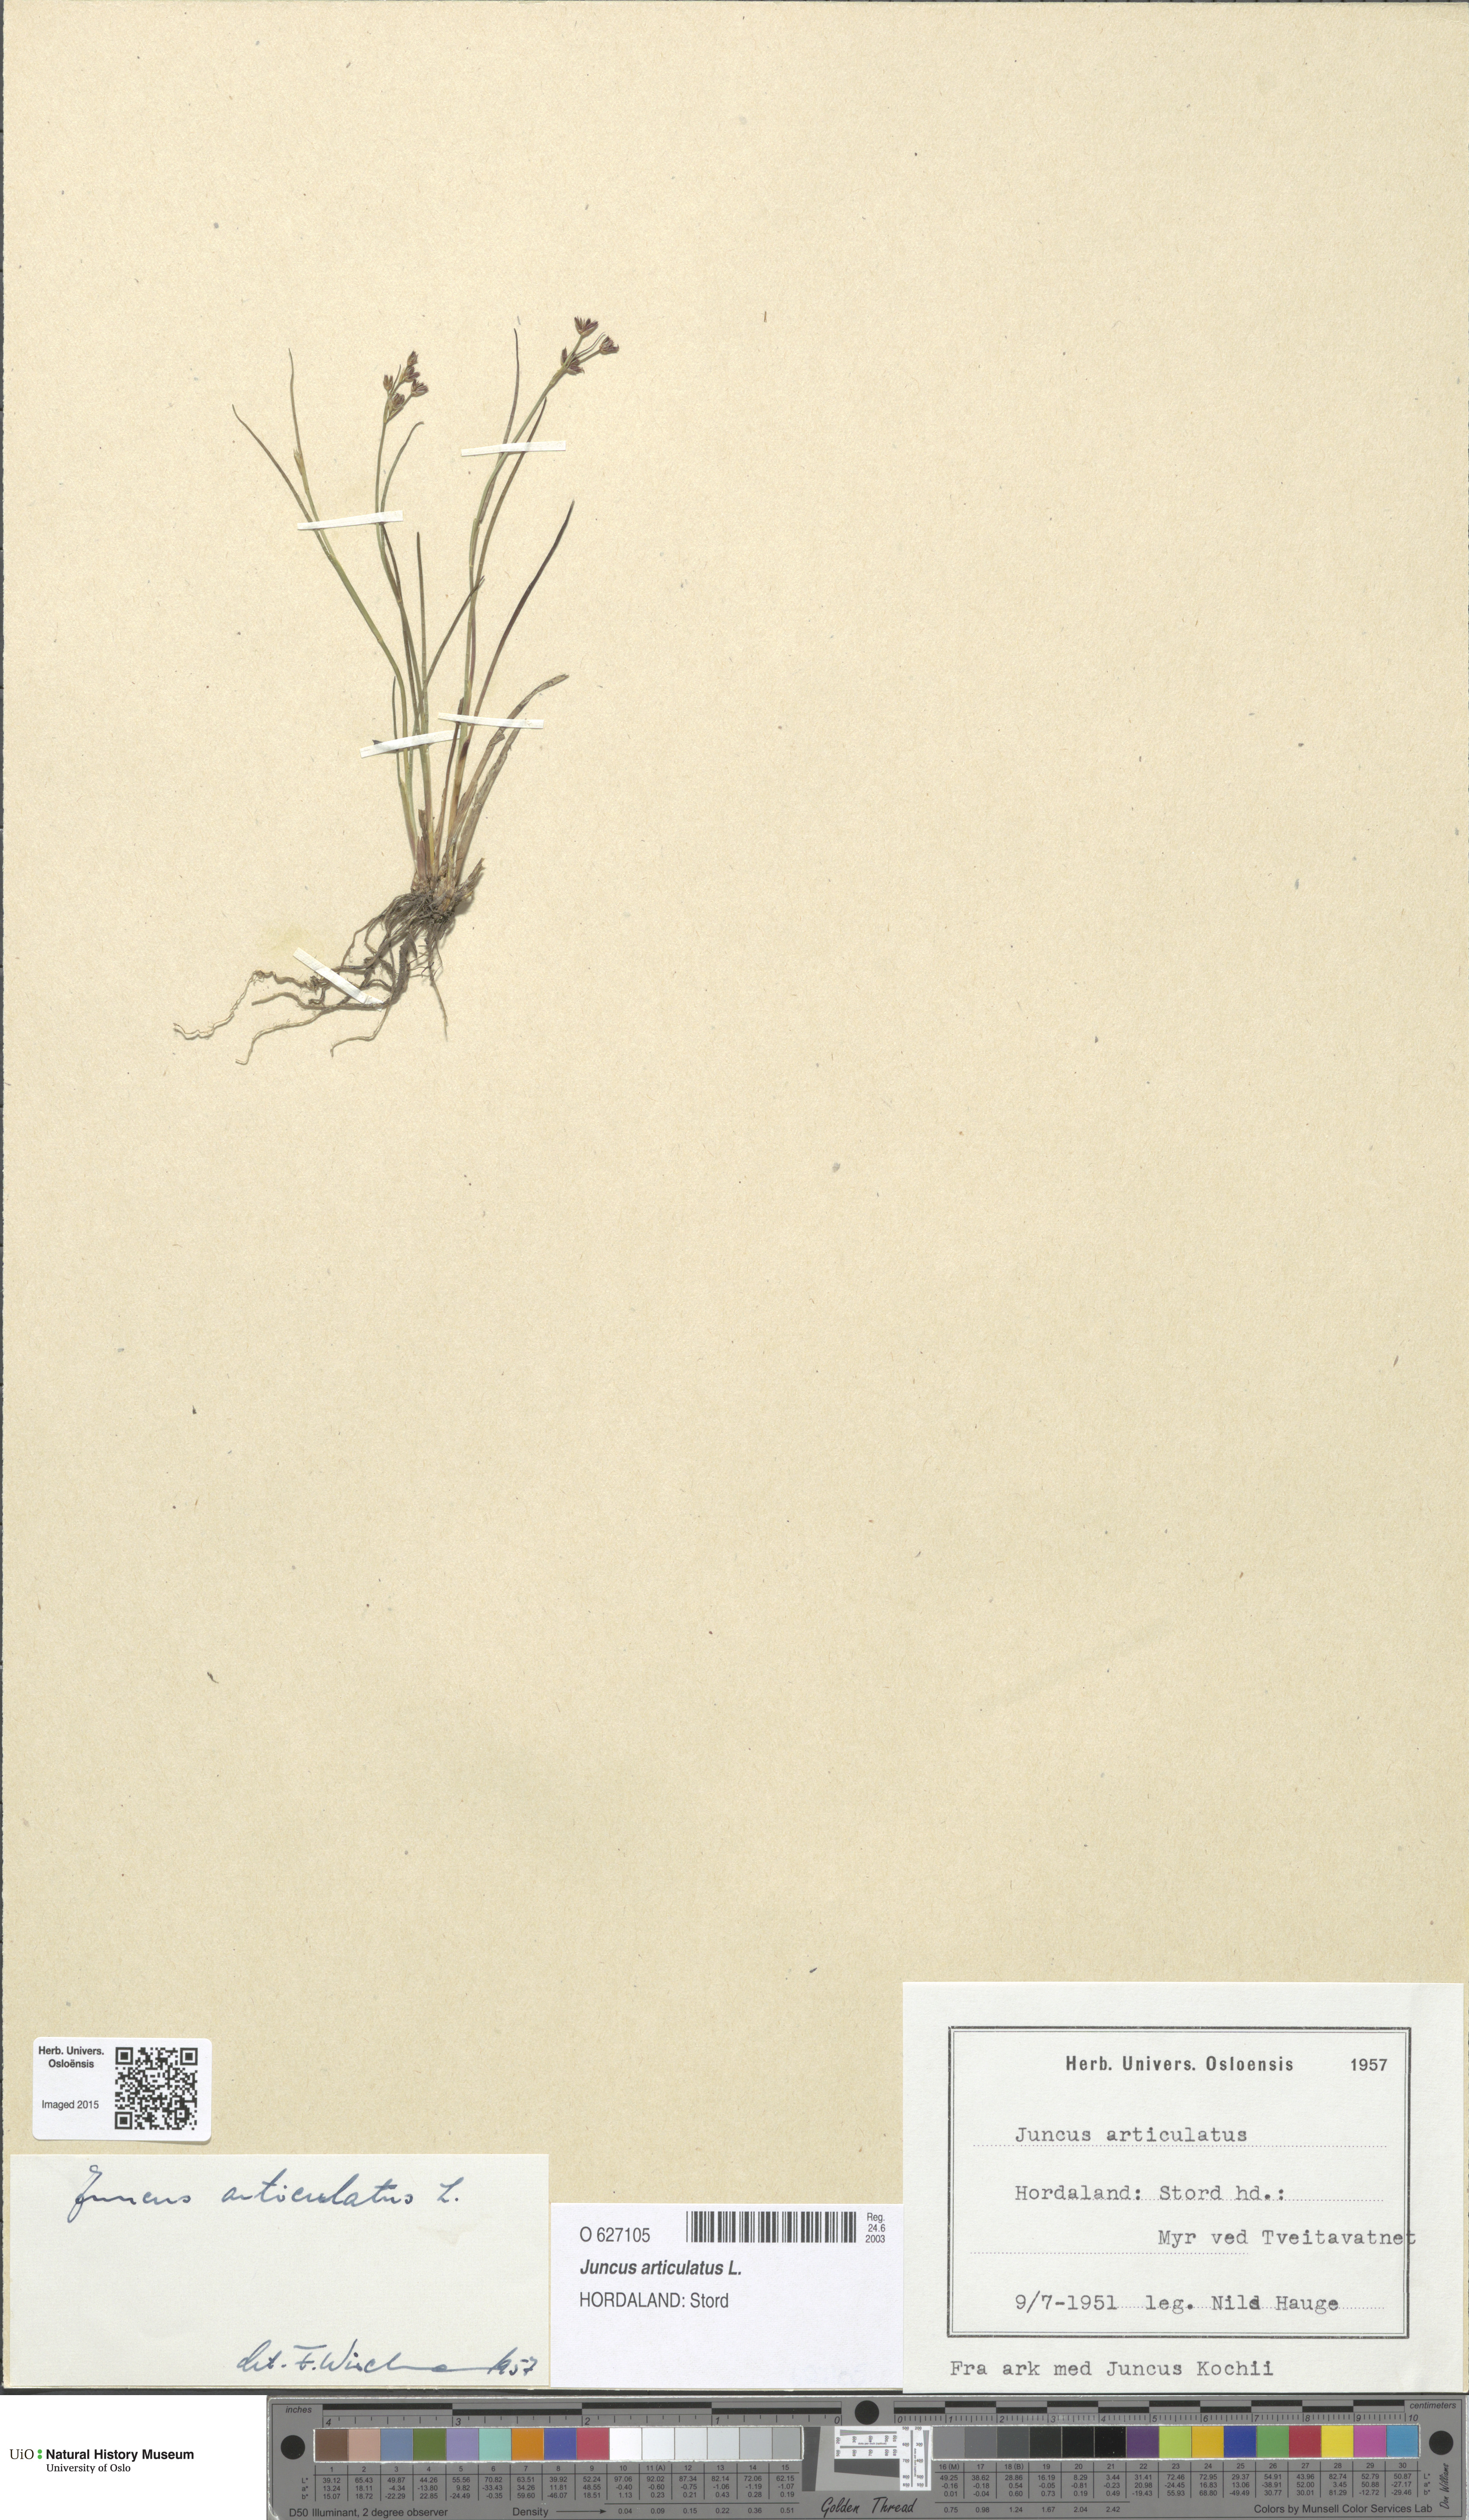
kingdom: Plantae
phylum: Tracheophyta
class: Liliopsida
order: Poales
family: Juncaceae
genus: Juncus
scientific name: Juncus articulatus
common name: Jointed rush
